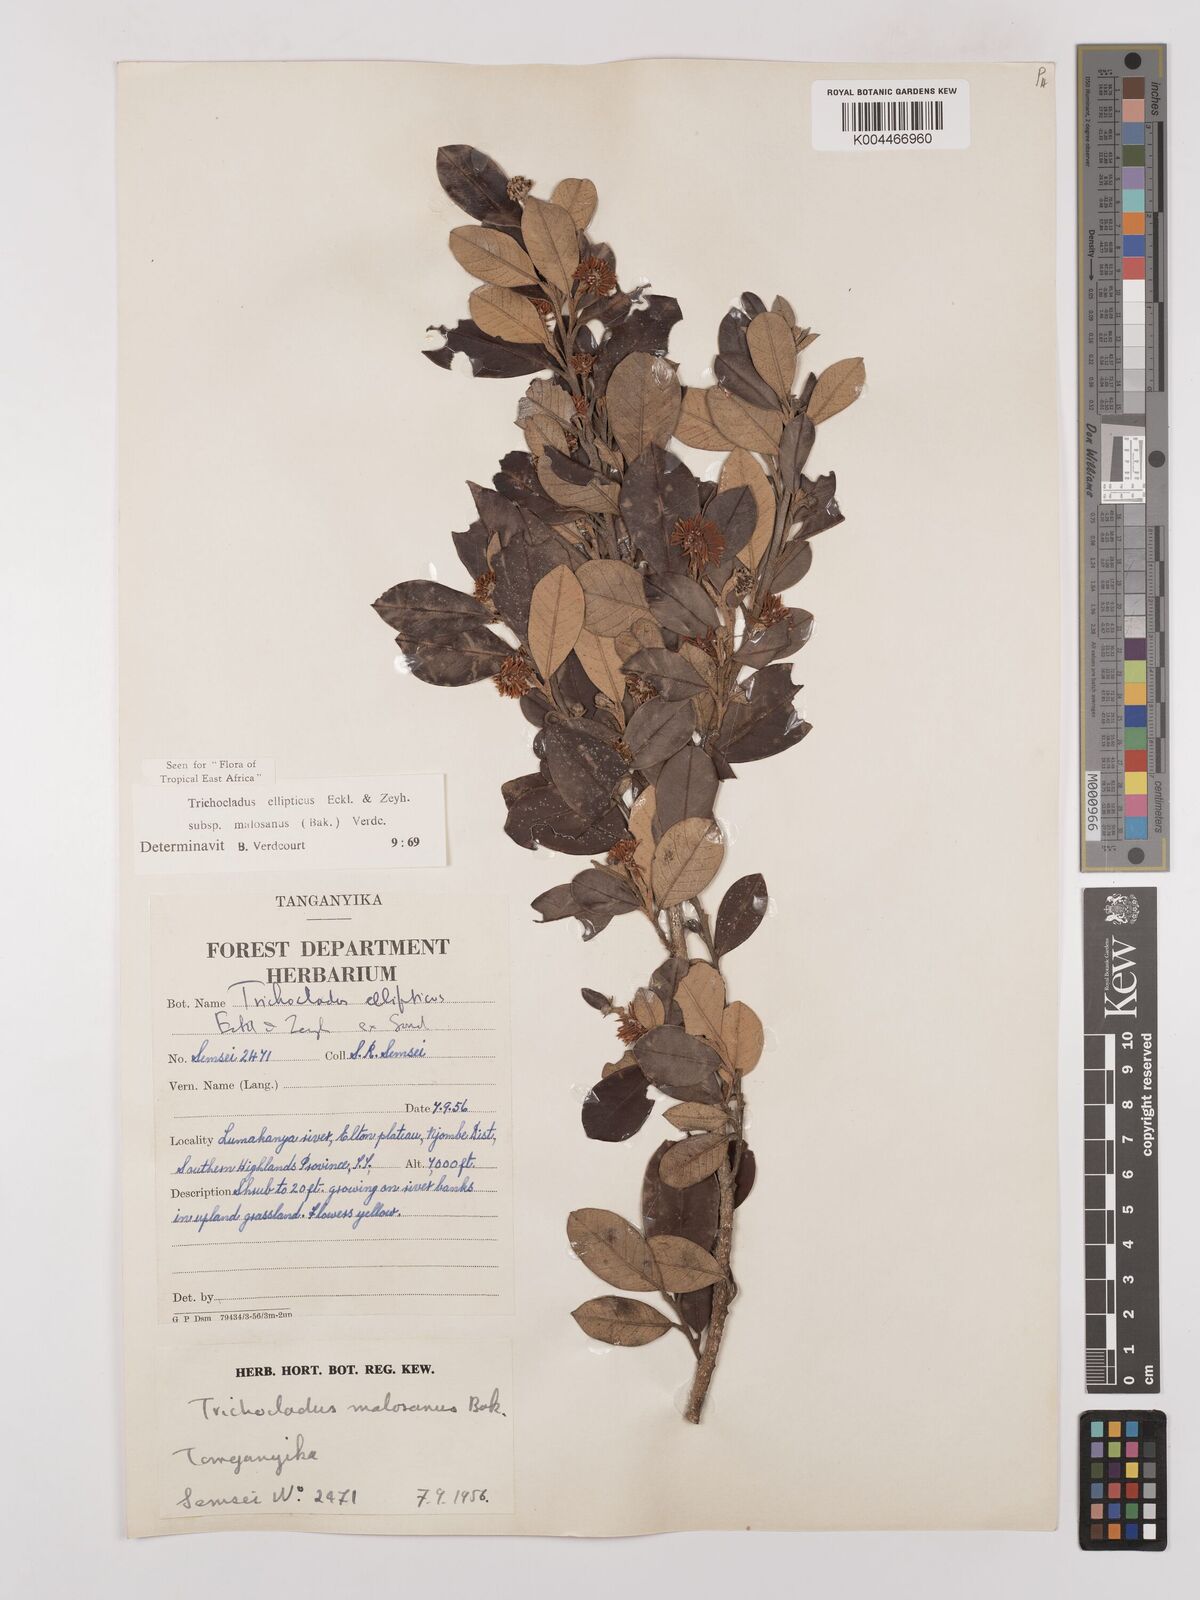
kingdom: Plantae
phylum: Tracheophyta
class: Magnoliopsida
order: Saxifragales
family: Hamamelidaceae
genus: Trichocladus
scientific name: Trichocladus ellipticus
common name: White witch-hazel
